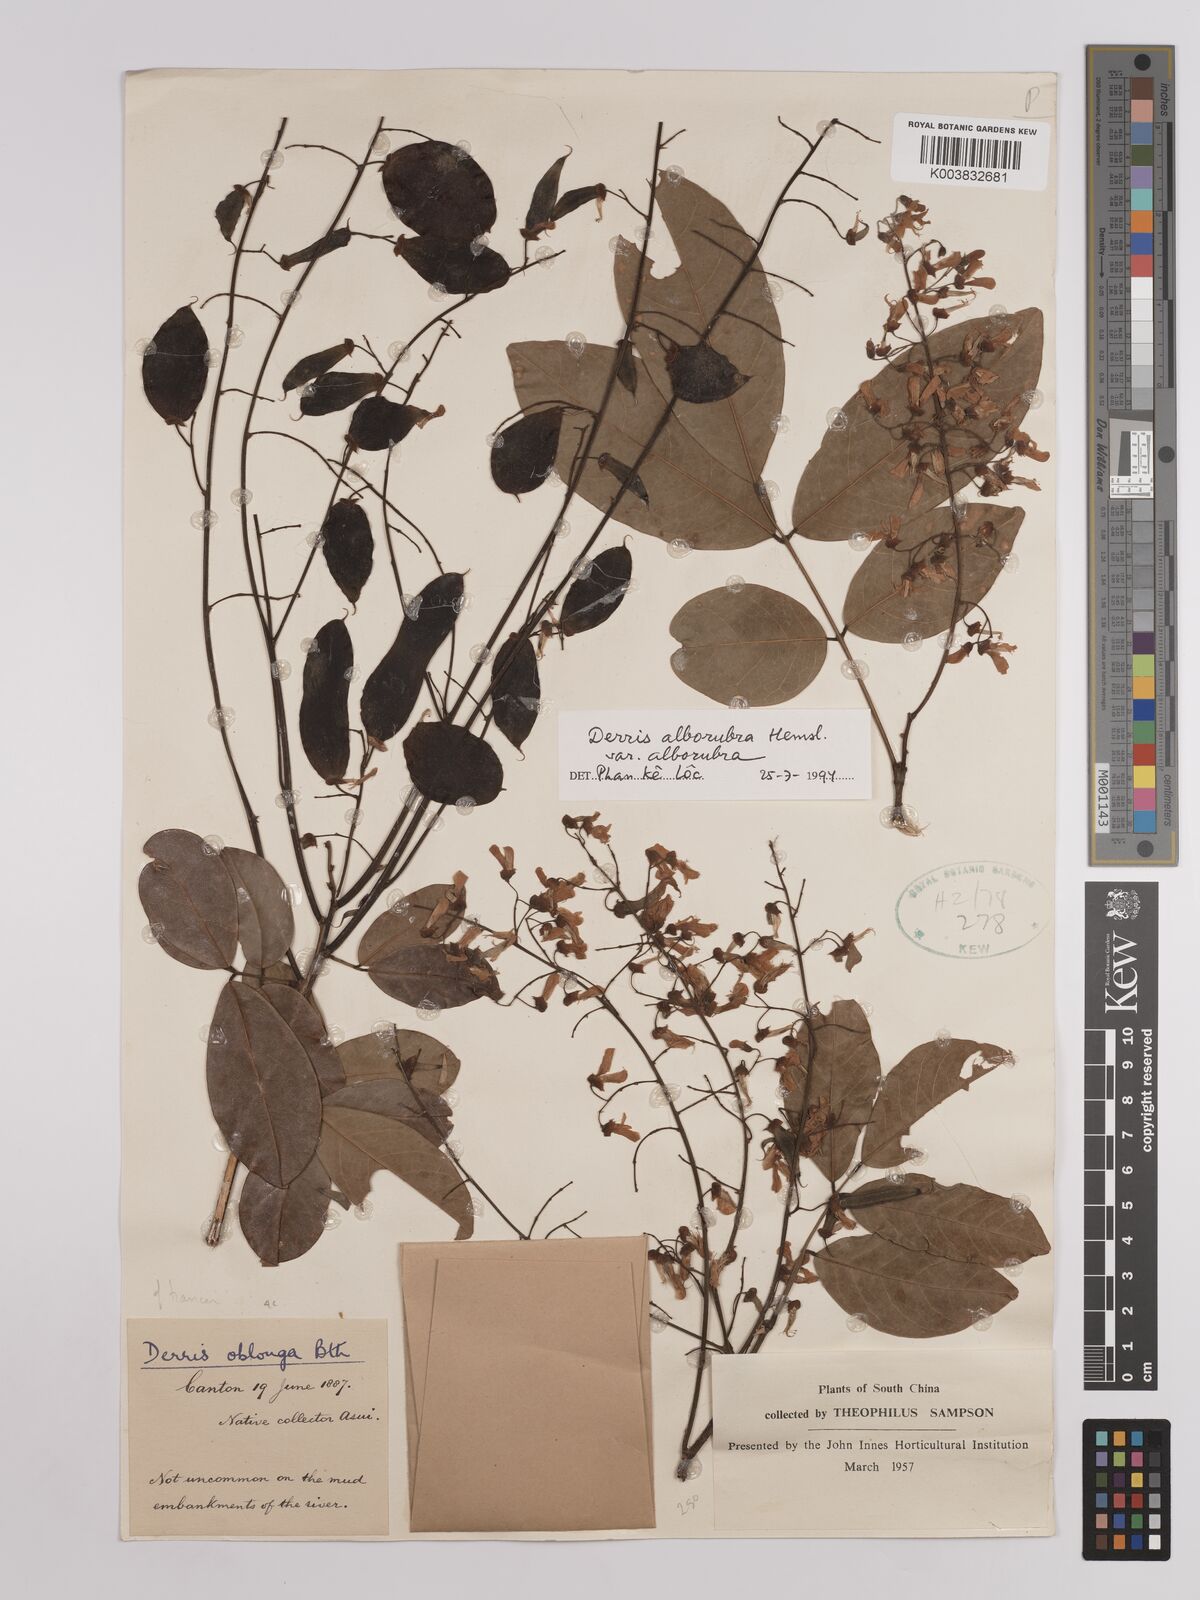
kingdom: Plantae
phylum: Tracheophyta
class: Magnoliopsida
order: Fabales
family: Fabaceae
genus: Derris
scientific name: Derris alborubra
